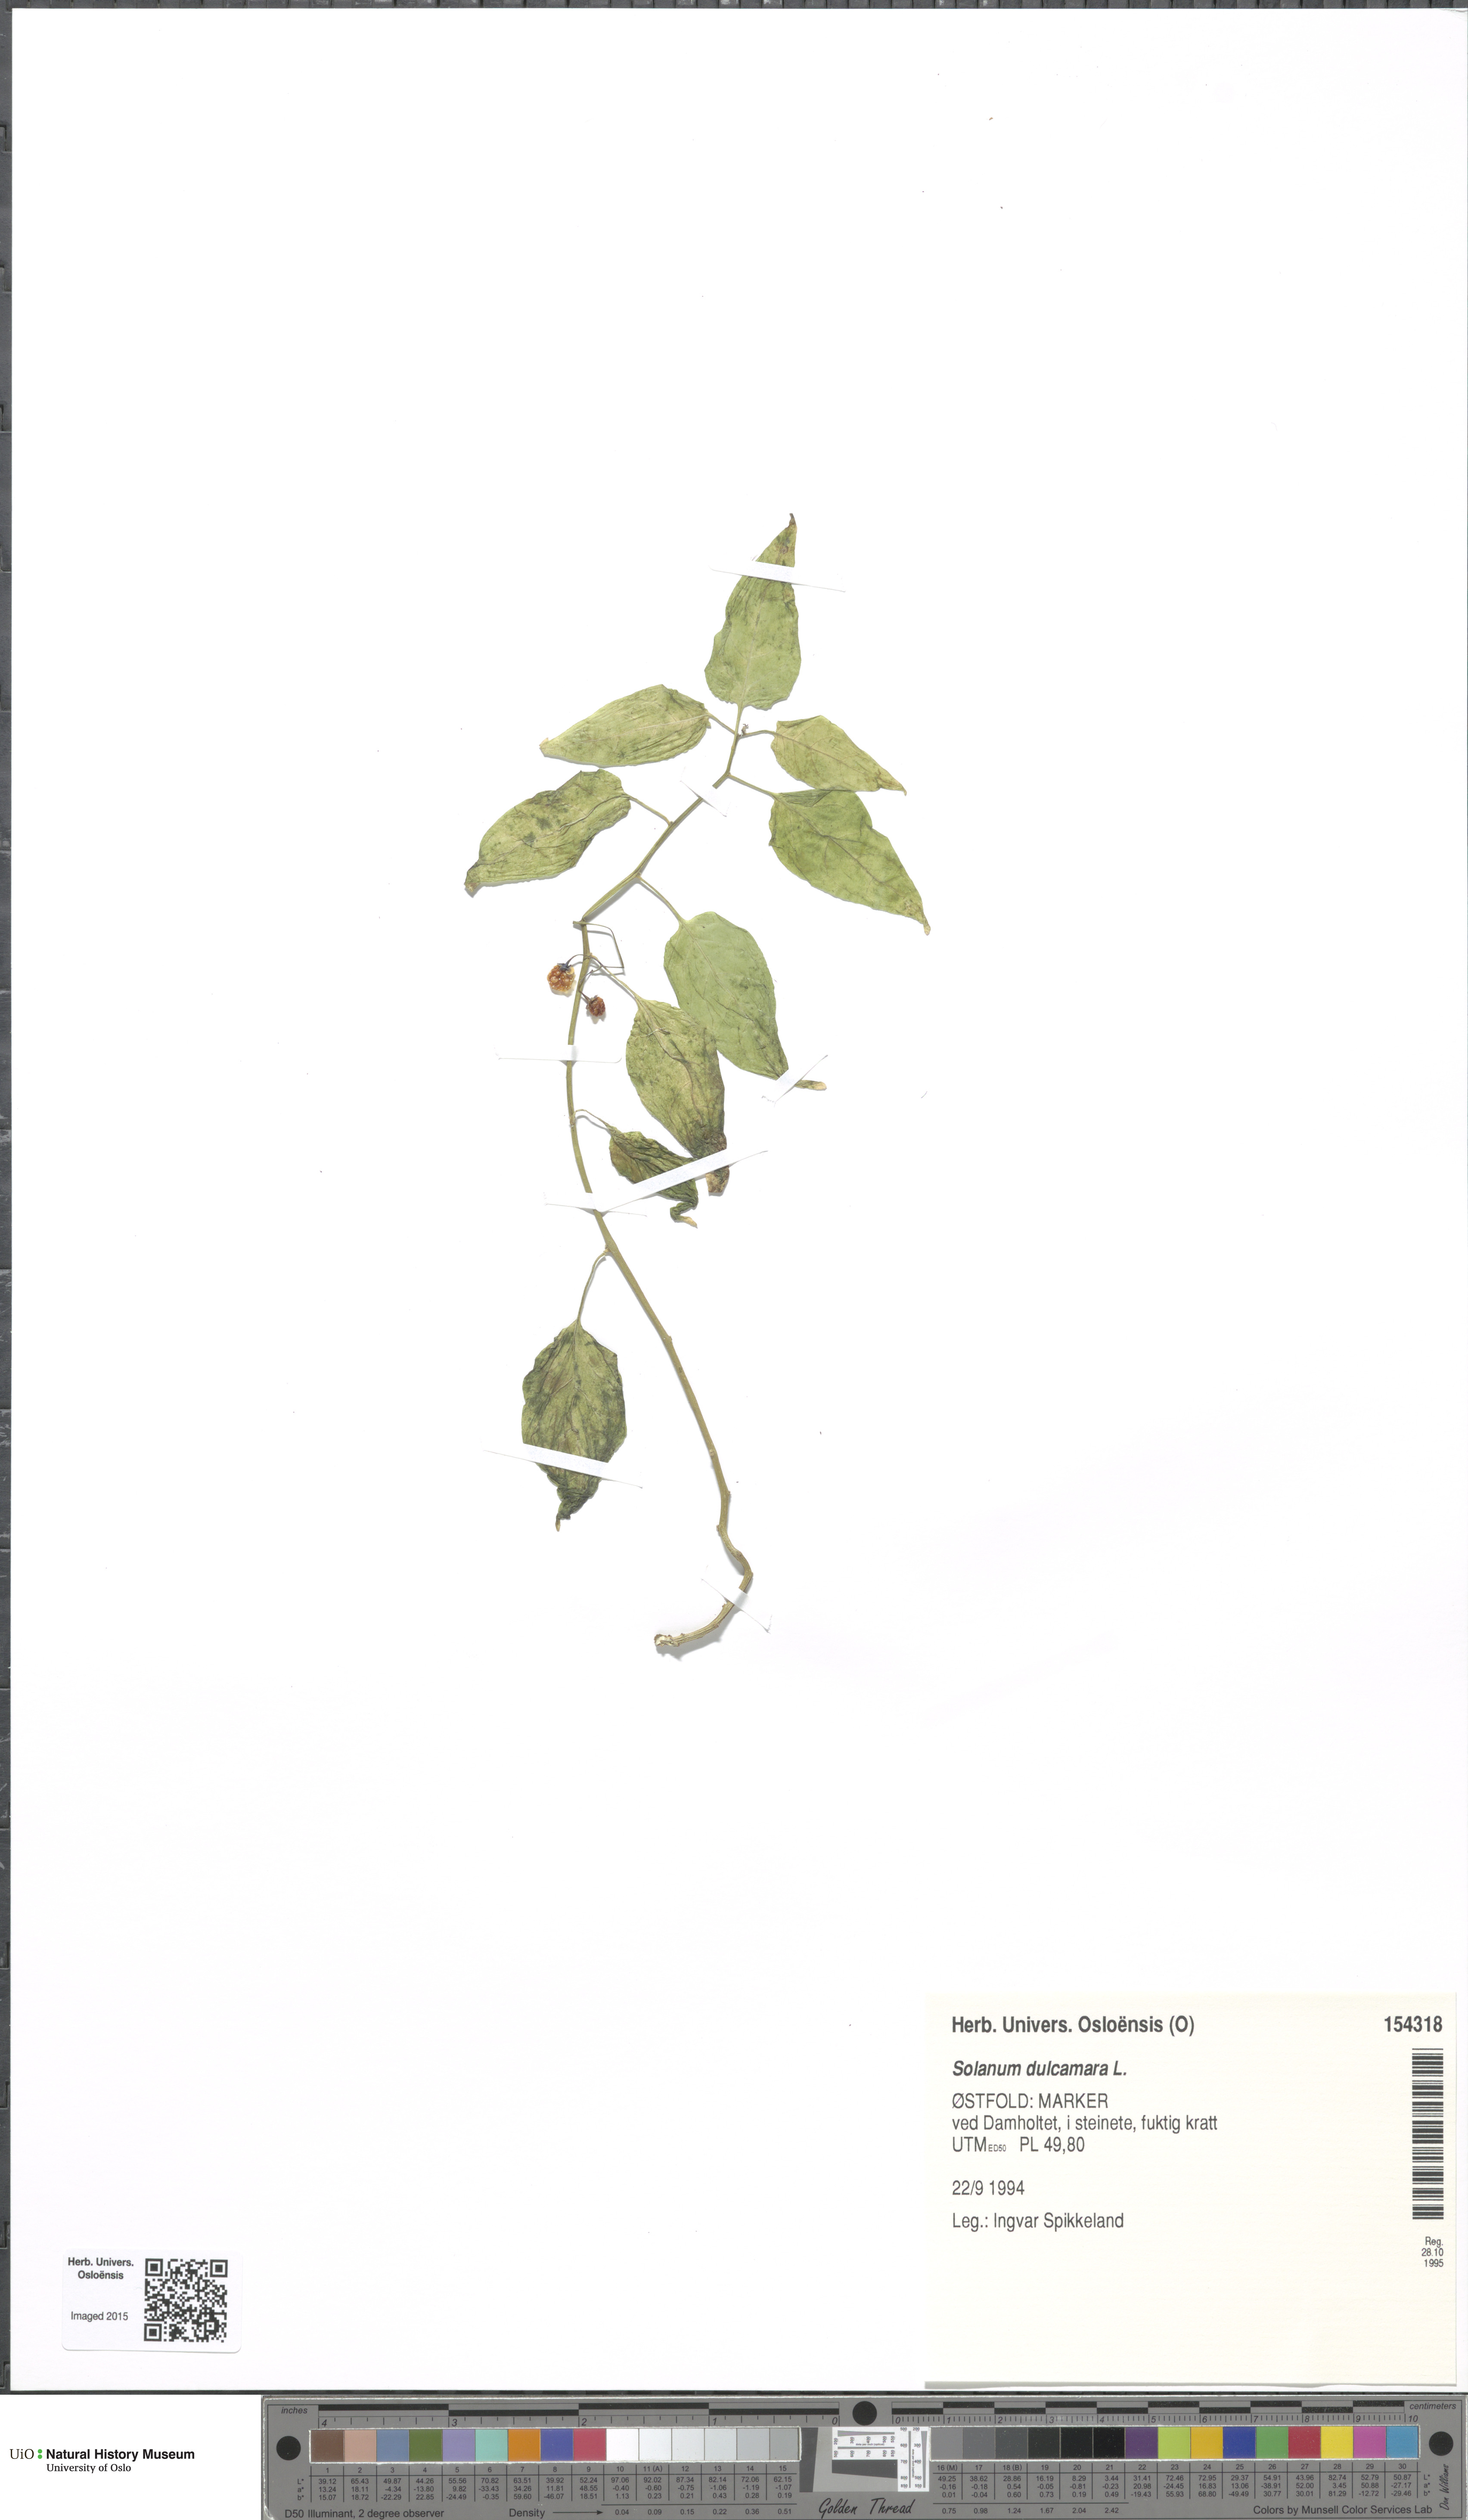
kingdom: Plantae
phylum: Tracheophyta
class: Magnoliopsida
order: Solanales
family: Solanaceae
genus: Solanum
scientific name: Solanum dulcamara
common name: Climbing nightshade
